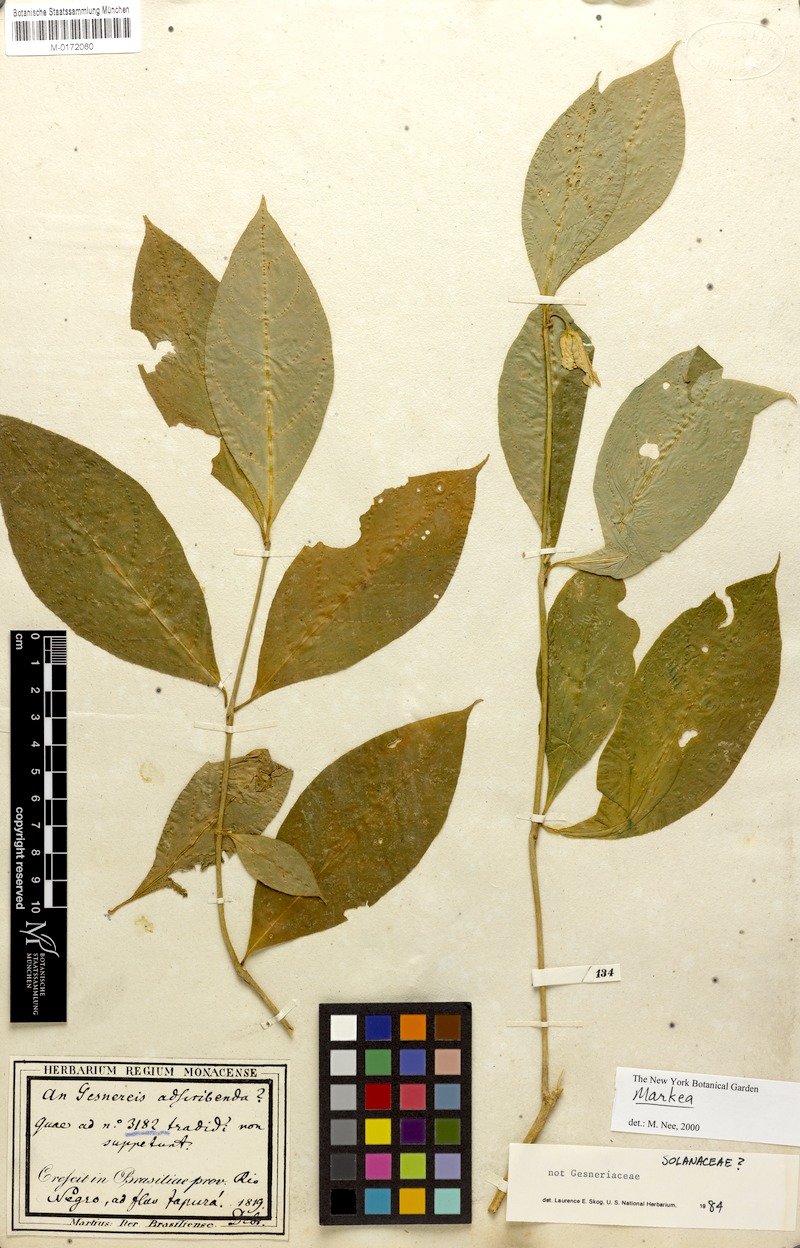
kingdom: Plantae
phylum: Tracheophyta
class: Magnoliopsida
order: Solanales
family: Solanaceae
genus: Markea
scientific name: Markea
